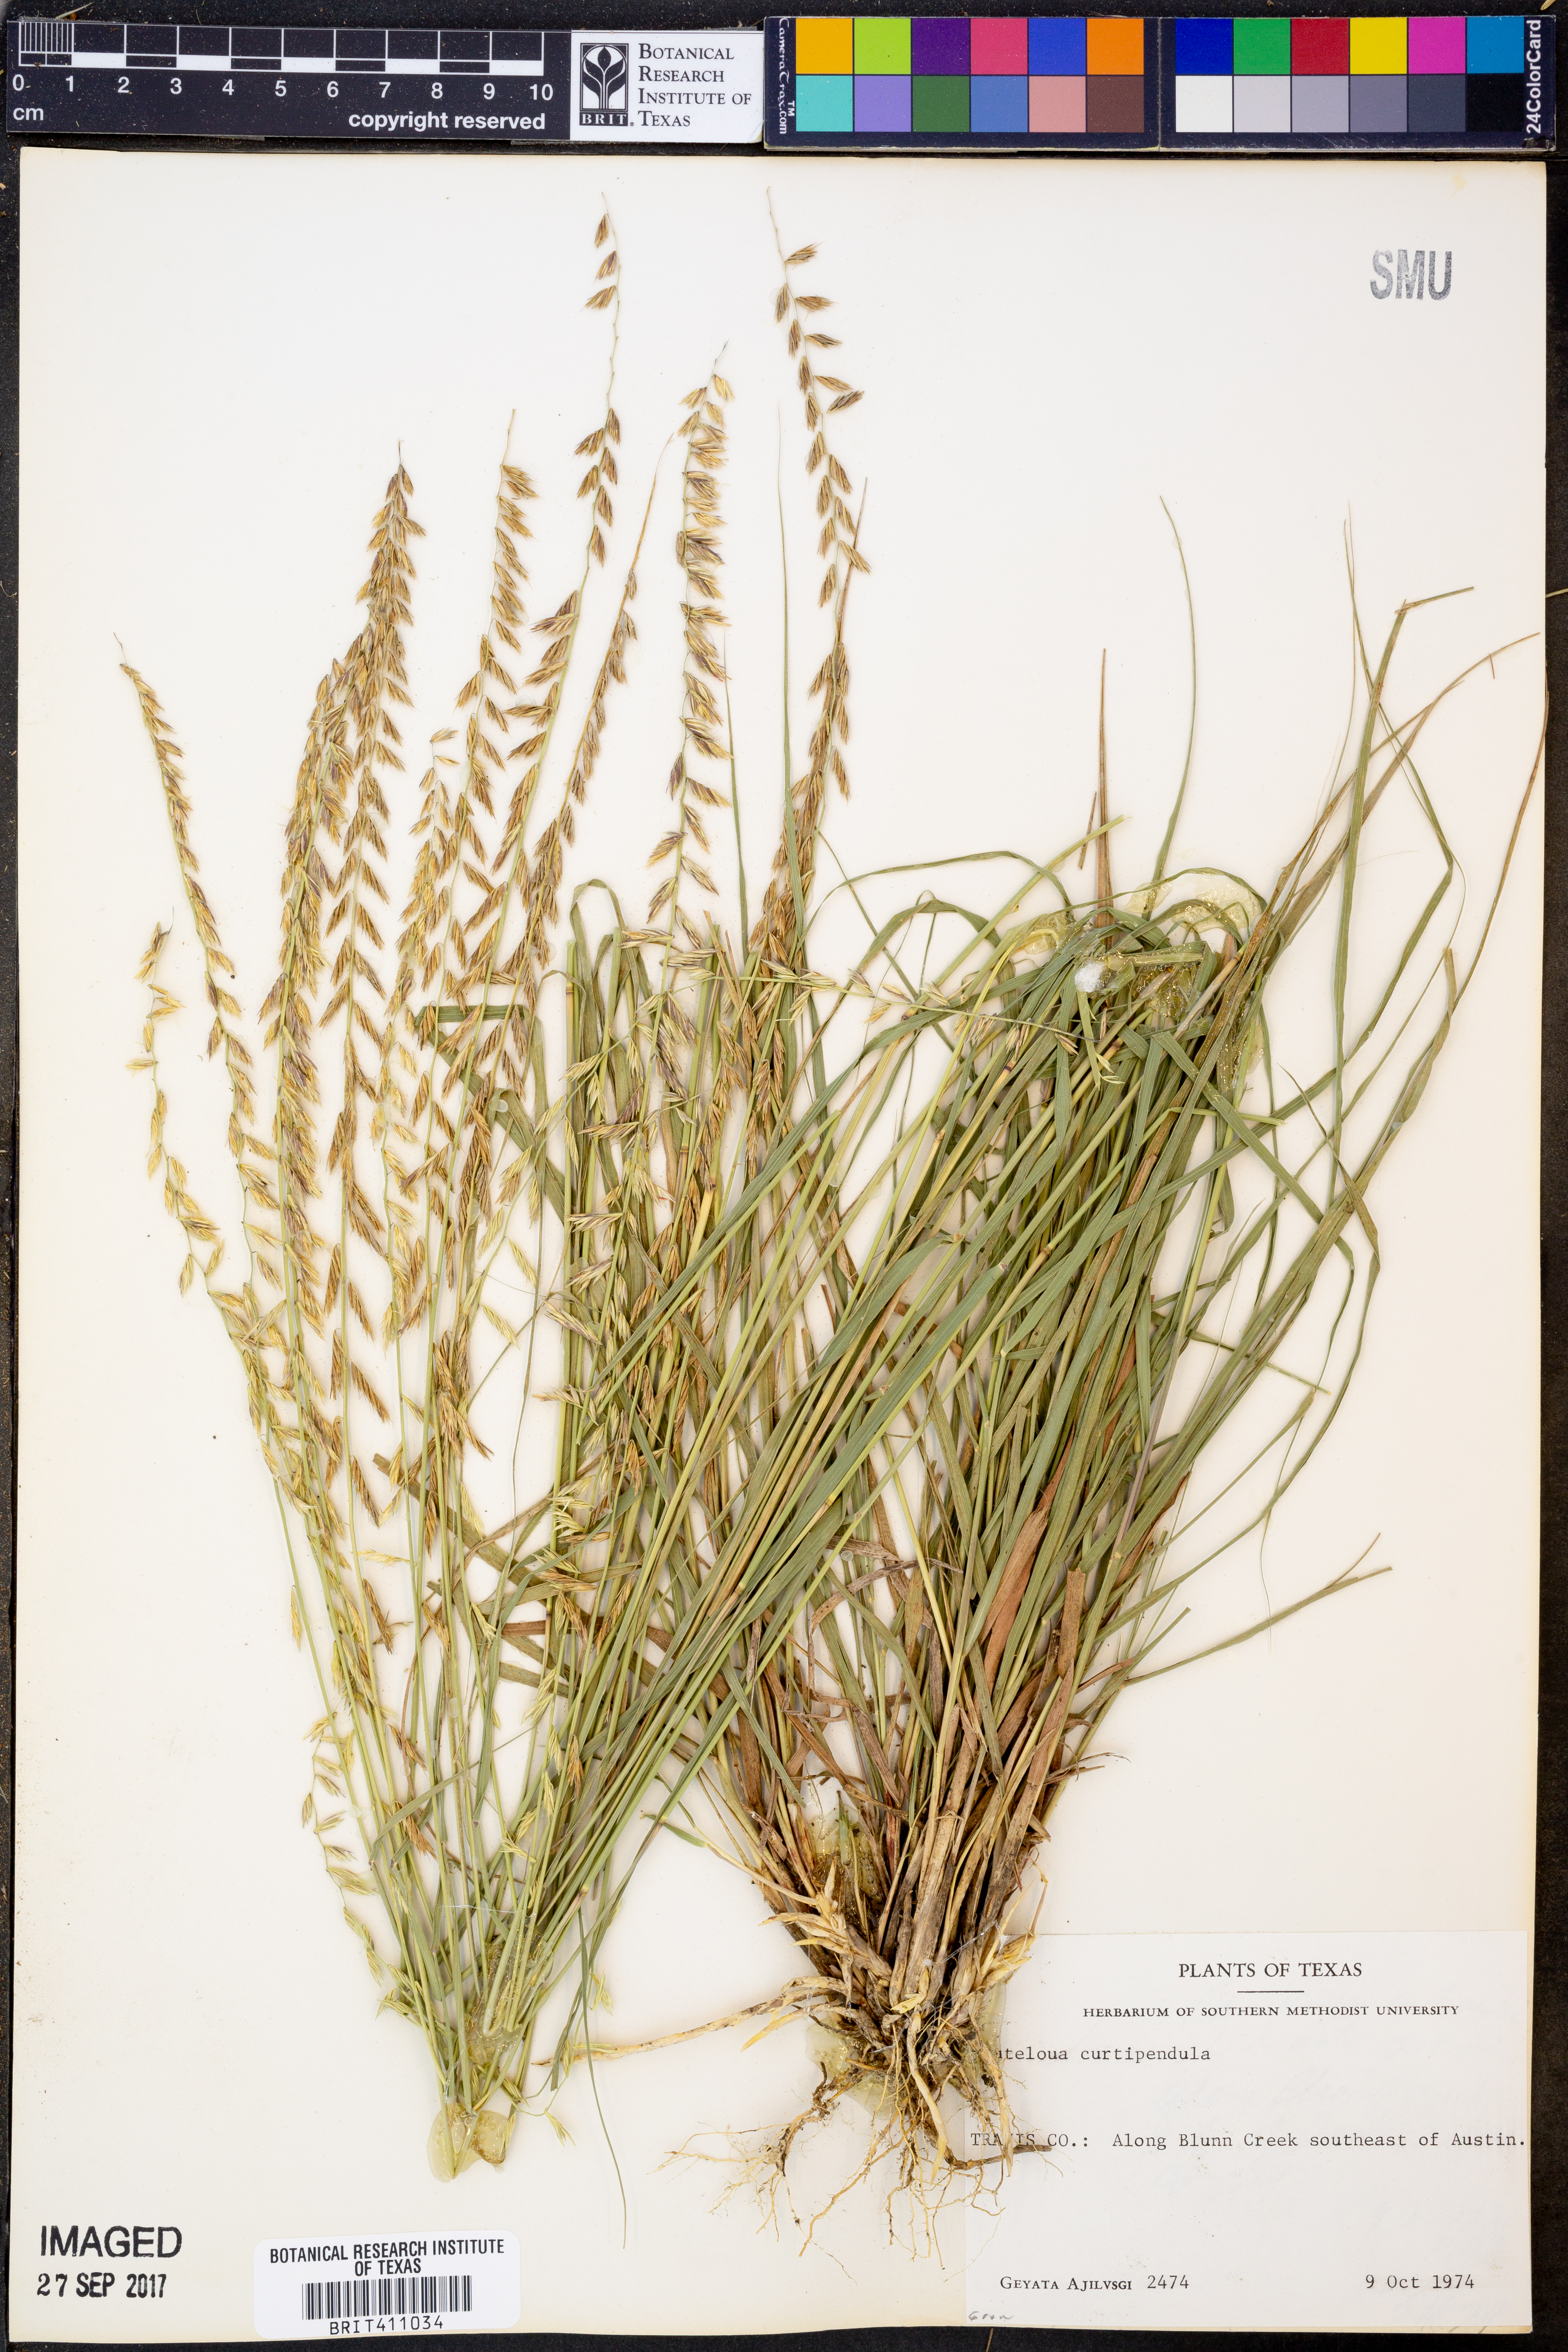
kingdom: Plantae
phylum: Tracheophyta
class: Liliopsida
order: Poales
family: Poaceae
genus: Bouteloua
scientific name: Bouteloua curtipendula
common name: Side-oats grama
